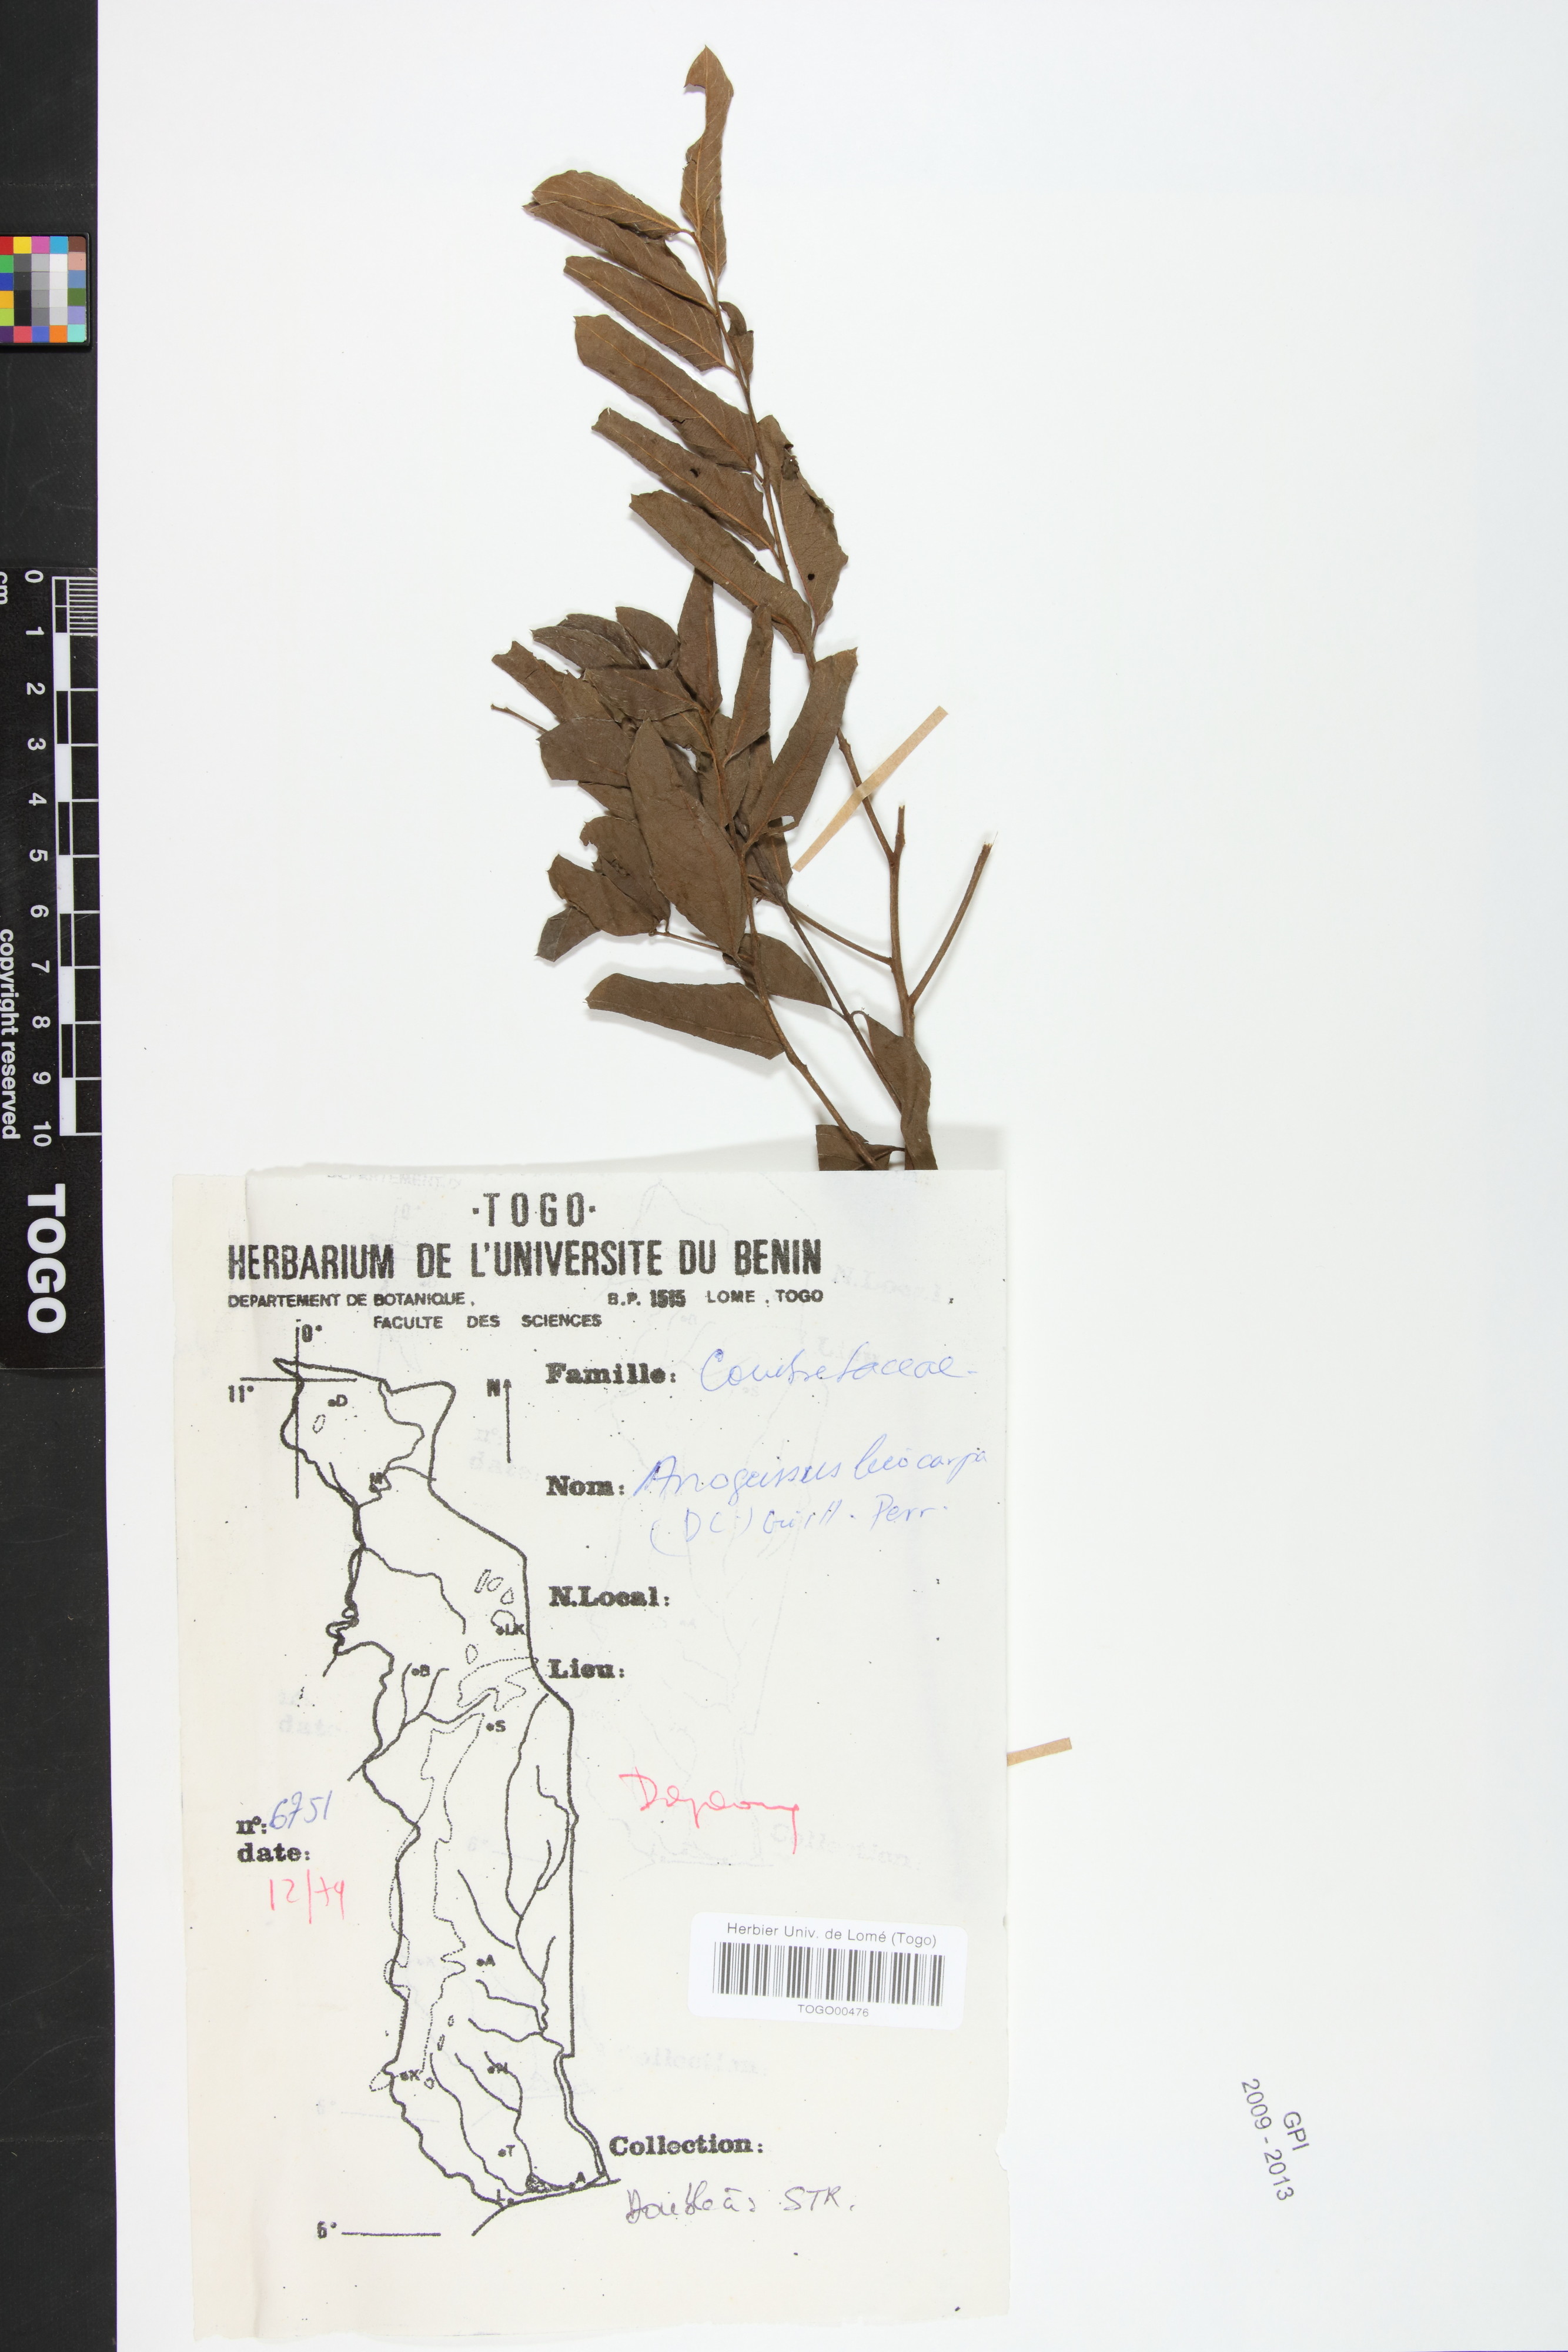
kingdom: Plantae
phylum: Tracheophyta
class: Magnoliopsida
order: Myrtales
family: Combretaceae
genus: Terminalia
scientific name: Terminalia leiocarpa
